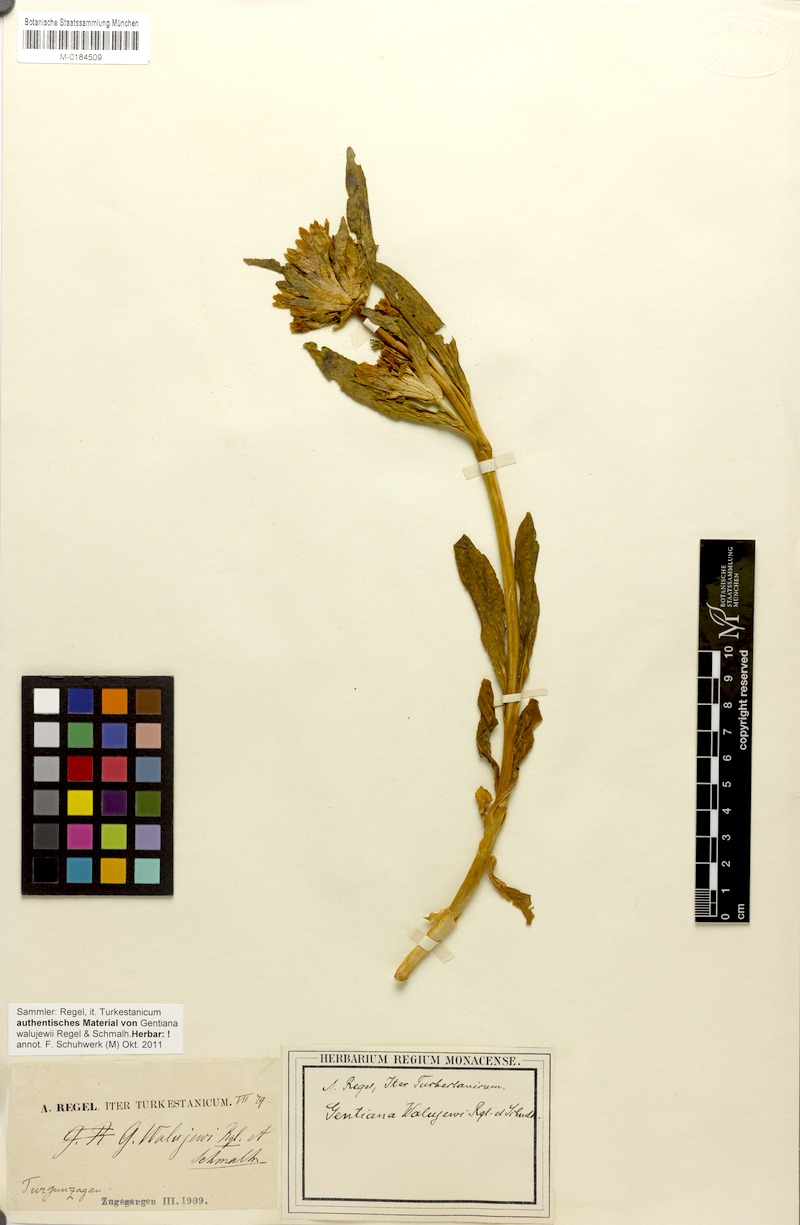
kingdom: Plantae
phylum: Tracheophyta
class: Magnoliopsida
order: Gentianales
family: Gentianaceae
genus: Gentiana
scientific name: Gentiana walujewii
